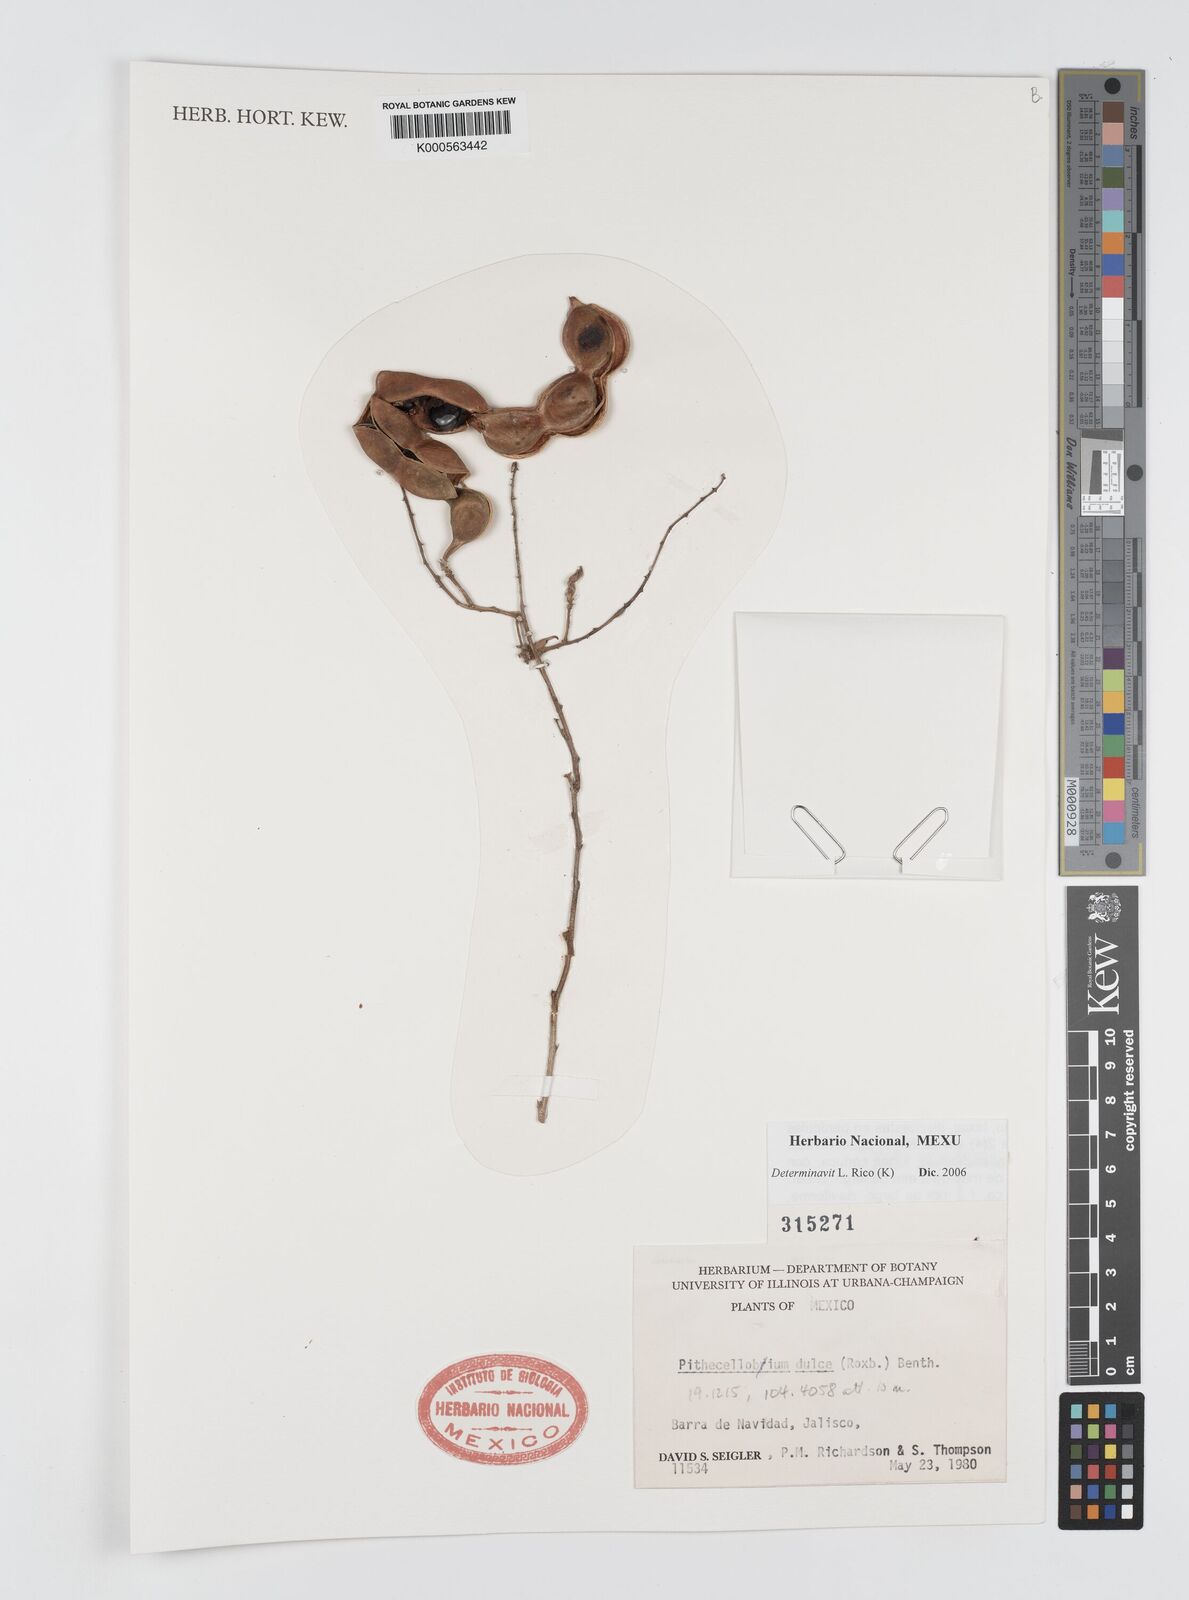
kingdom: Plantae
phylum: Tracheophyta
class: Magnoliopsida
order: Fabales
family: Fabaceae
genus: Pithecellobium
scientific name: Pithecellobium dulce
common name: Monkeypod
